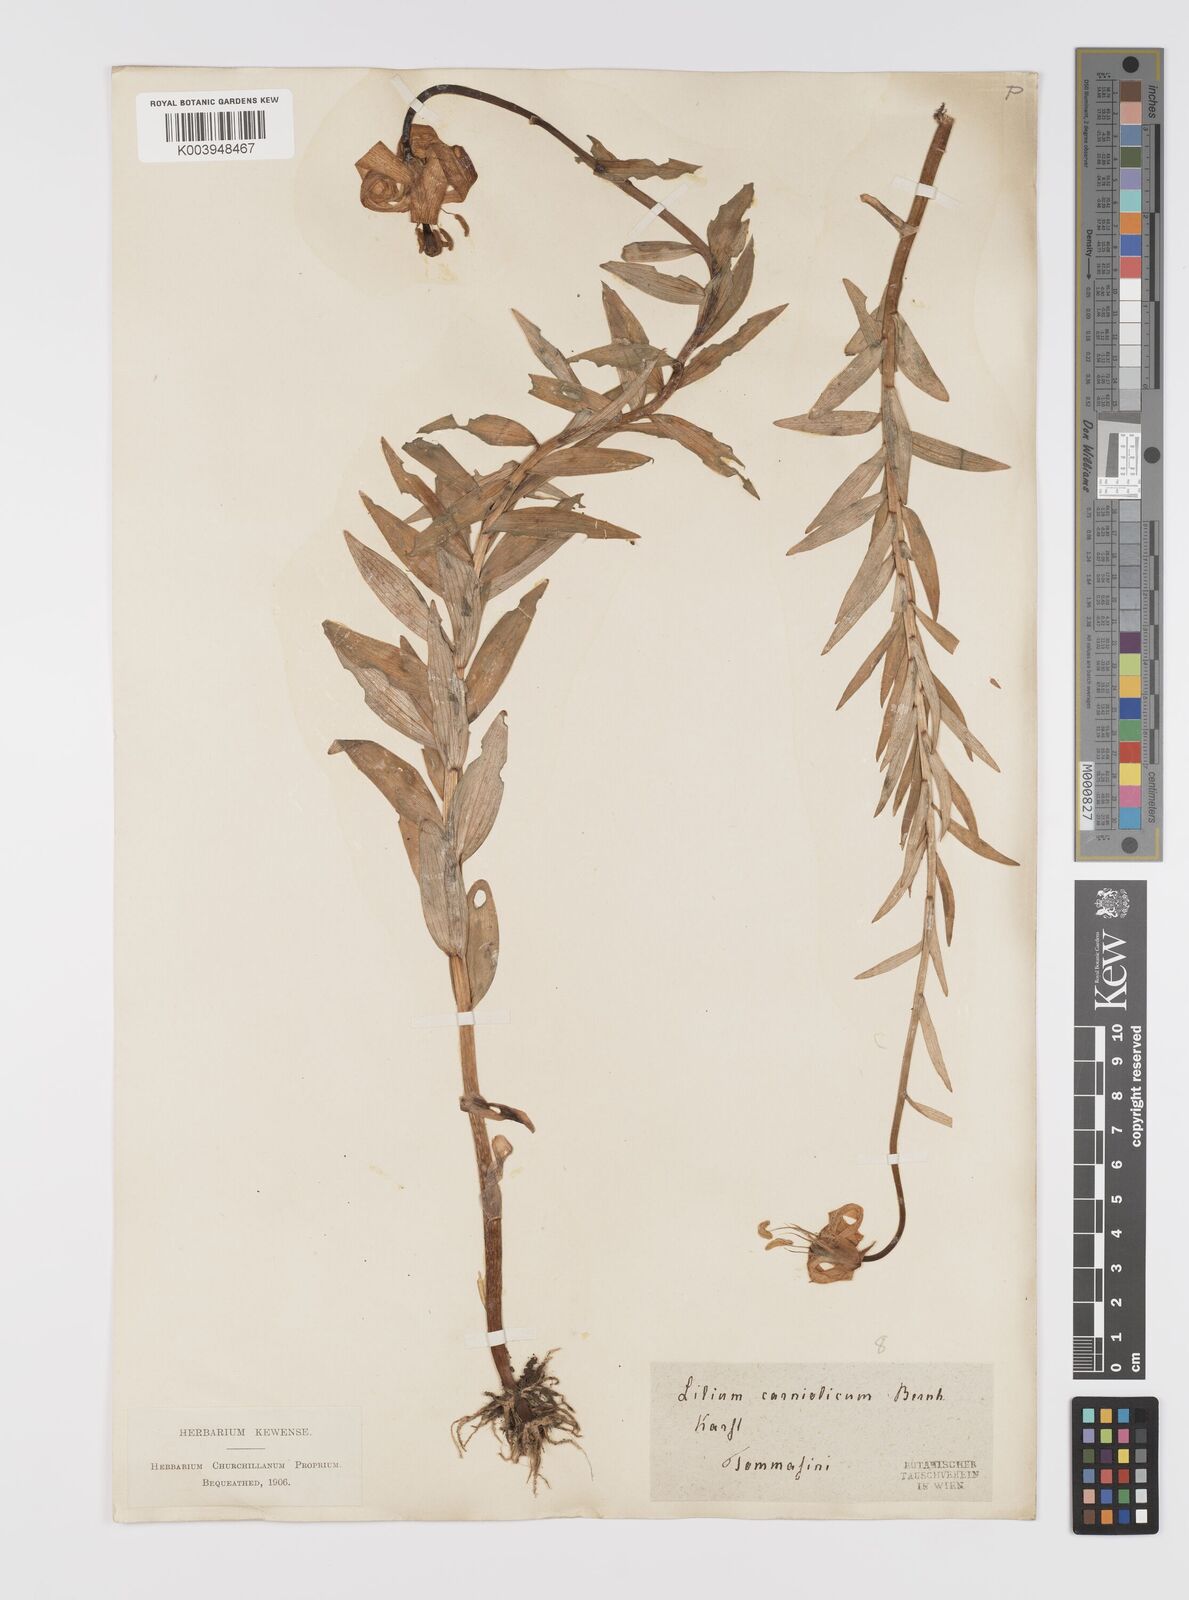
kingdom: Plantae
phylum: Tracheophyta
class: Liliopsida
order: Liliales
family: Liliaceae
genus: Lilium
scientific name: Lilium
